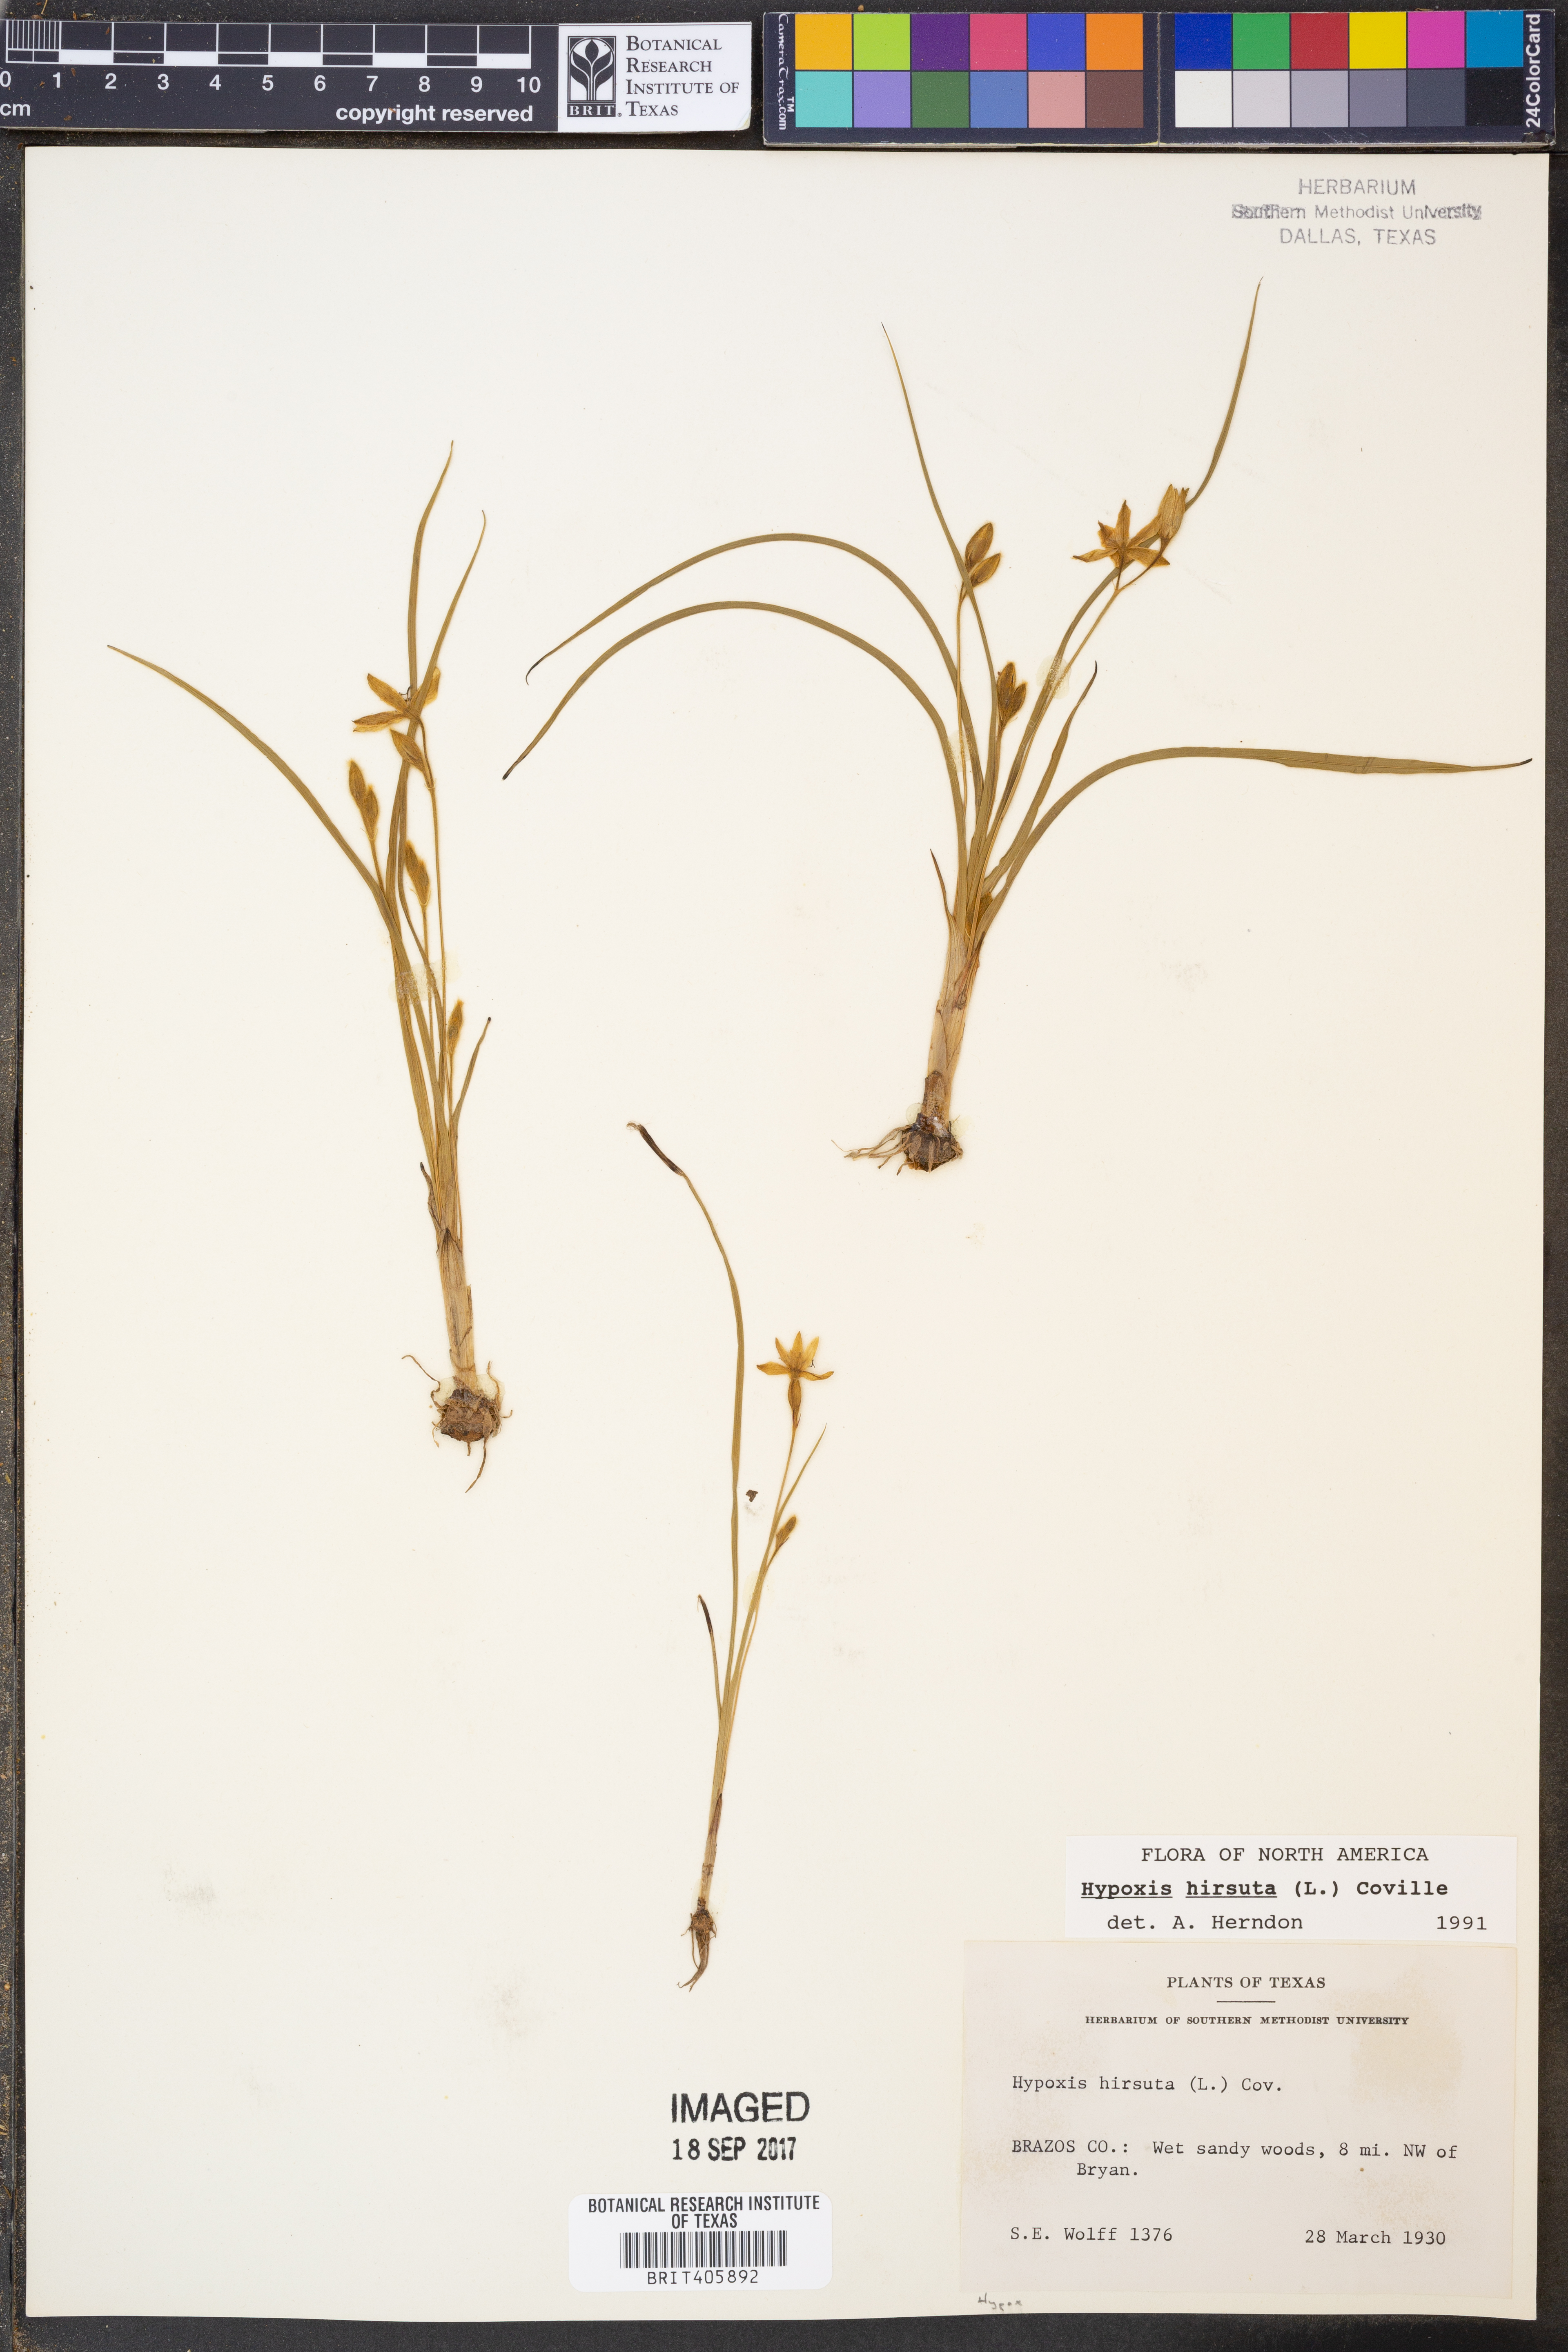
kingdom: Plantae
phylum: Tracheophyta
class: Liliopsida
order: Asparagales
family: Hypoxidaceae
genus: Hypoxis
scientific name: Hypoxis hirsuta
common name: Common goldstar
